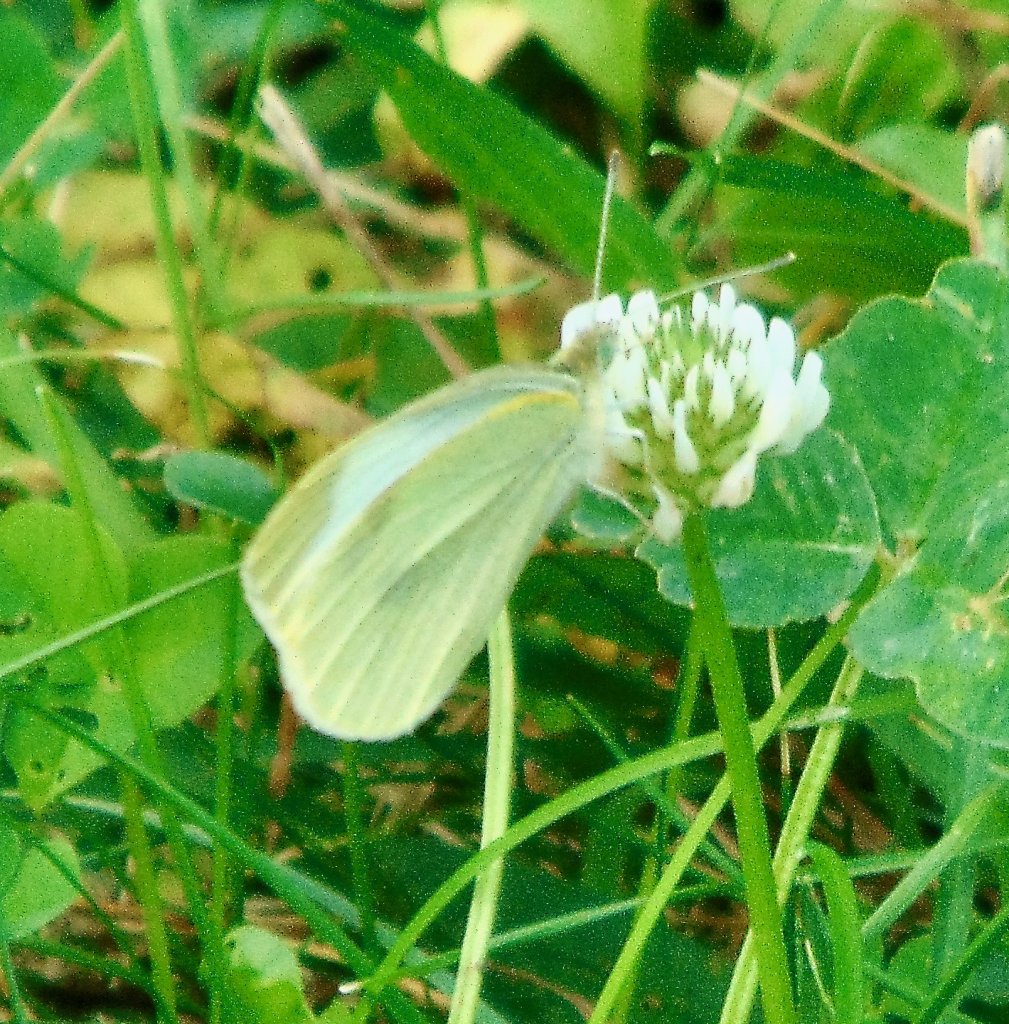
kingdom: Animalia
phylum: Arthropoda
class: Insecta
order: Lepidoptera
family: Pieridae
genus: Pieris
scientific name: Pieris rapae
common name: Cabbage White
